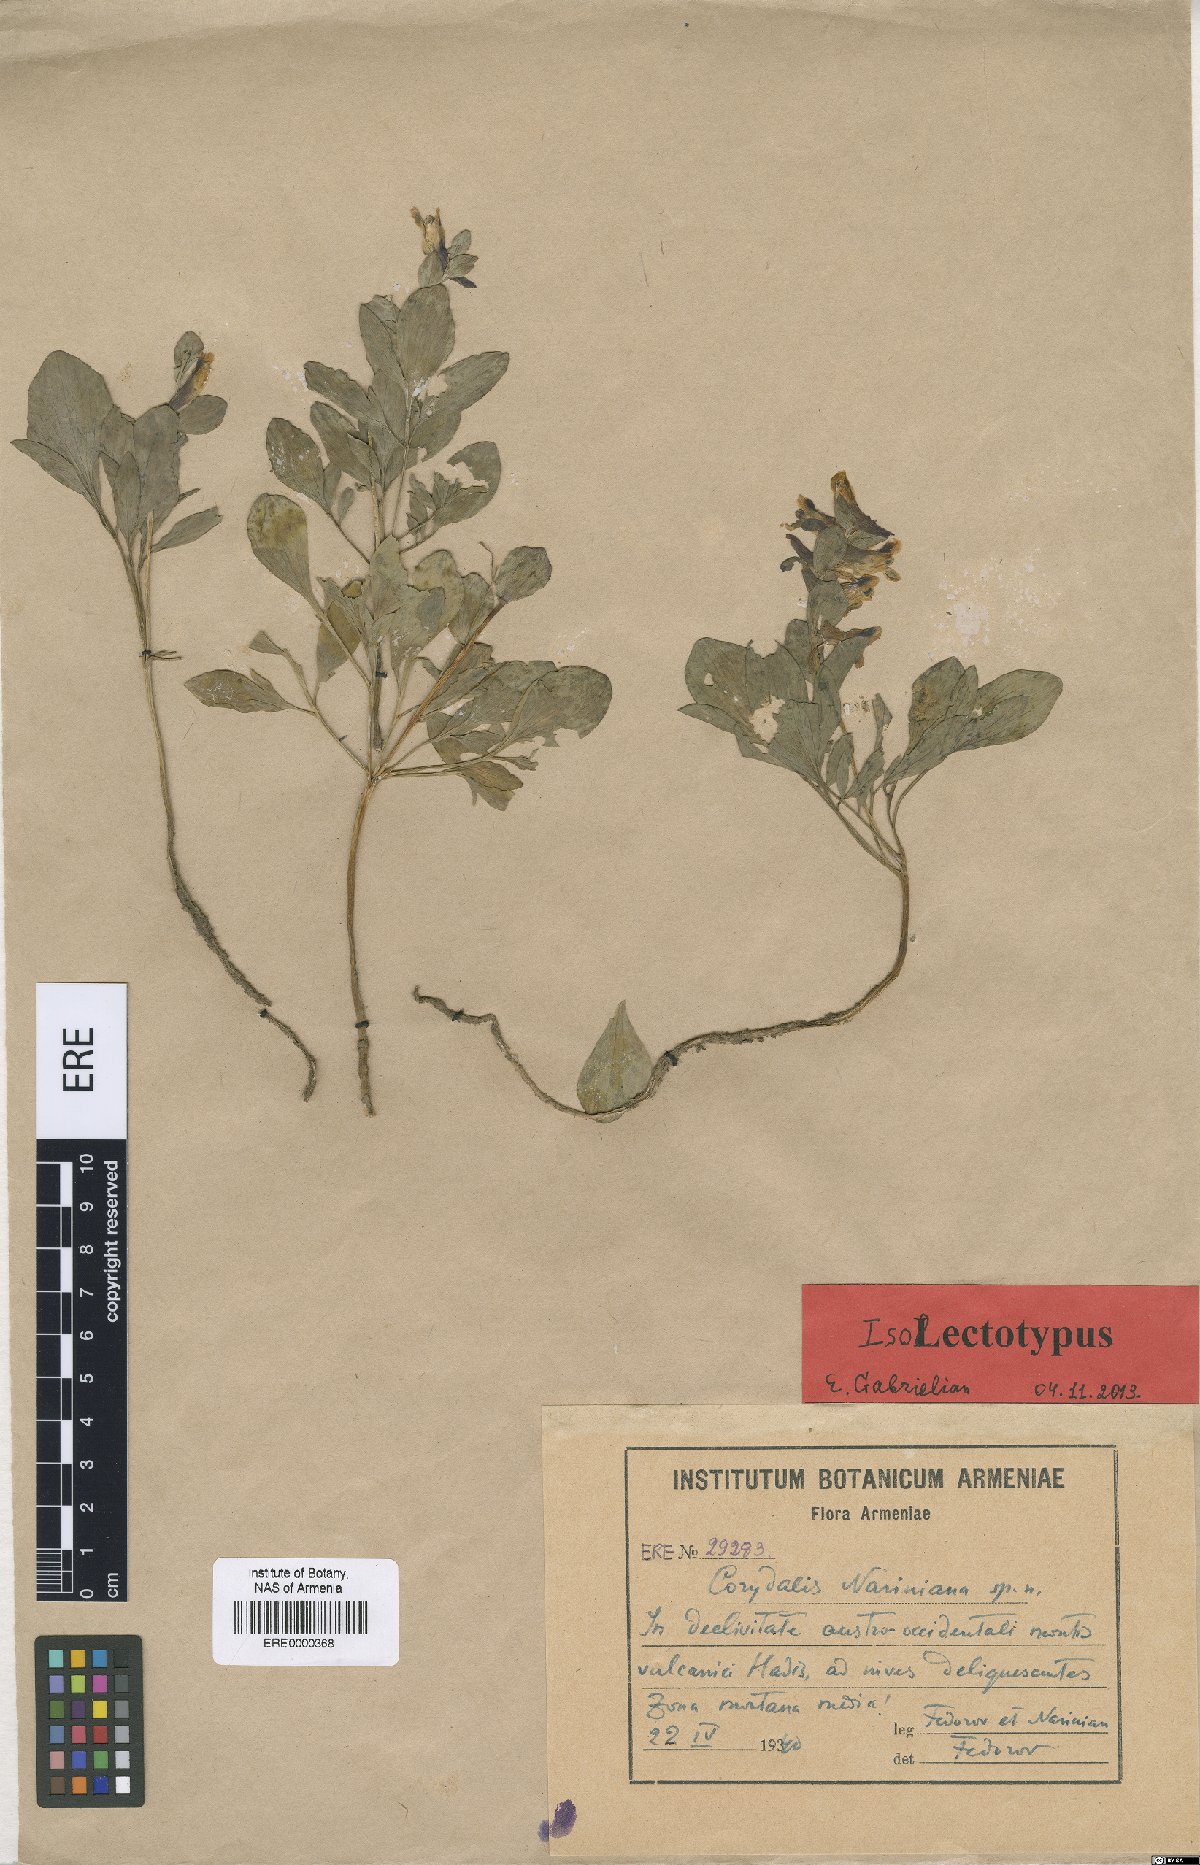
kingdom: Plantae
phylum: Tracheophyta
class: Magnoliopsida
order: Ranunculales
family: Papaveraceae
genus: Corydalis
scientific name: Corydalis nariniana
